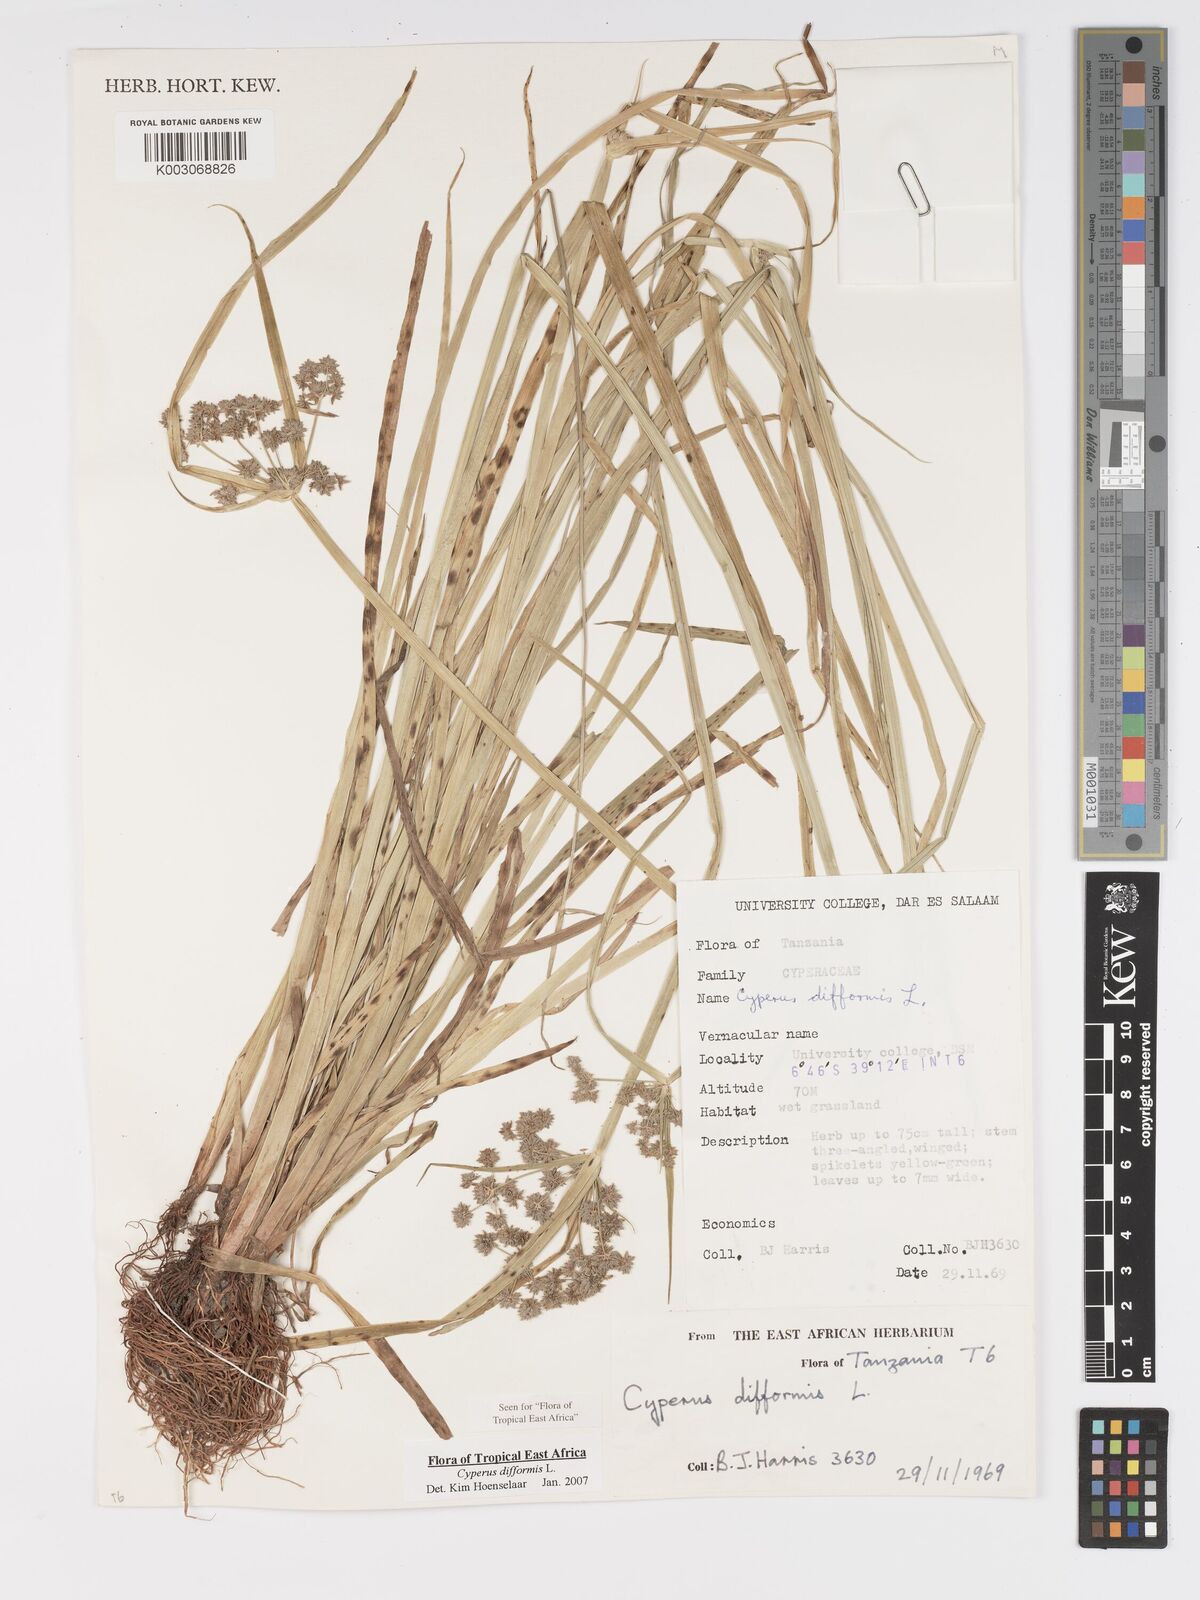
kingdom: Plantae
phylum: Tracheophyta
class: Liliopsida
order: Poales
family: Cyperaceae
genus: Cyperus
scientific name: Cyperus difformis
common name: Variable flatsedge
